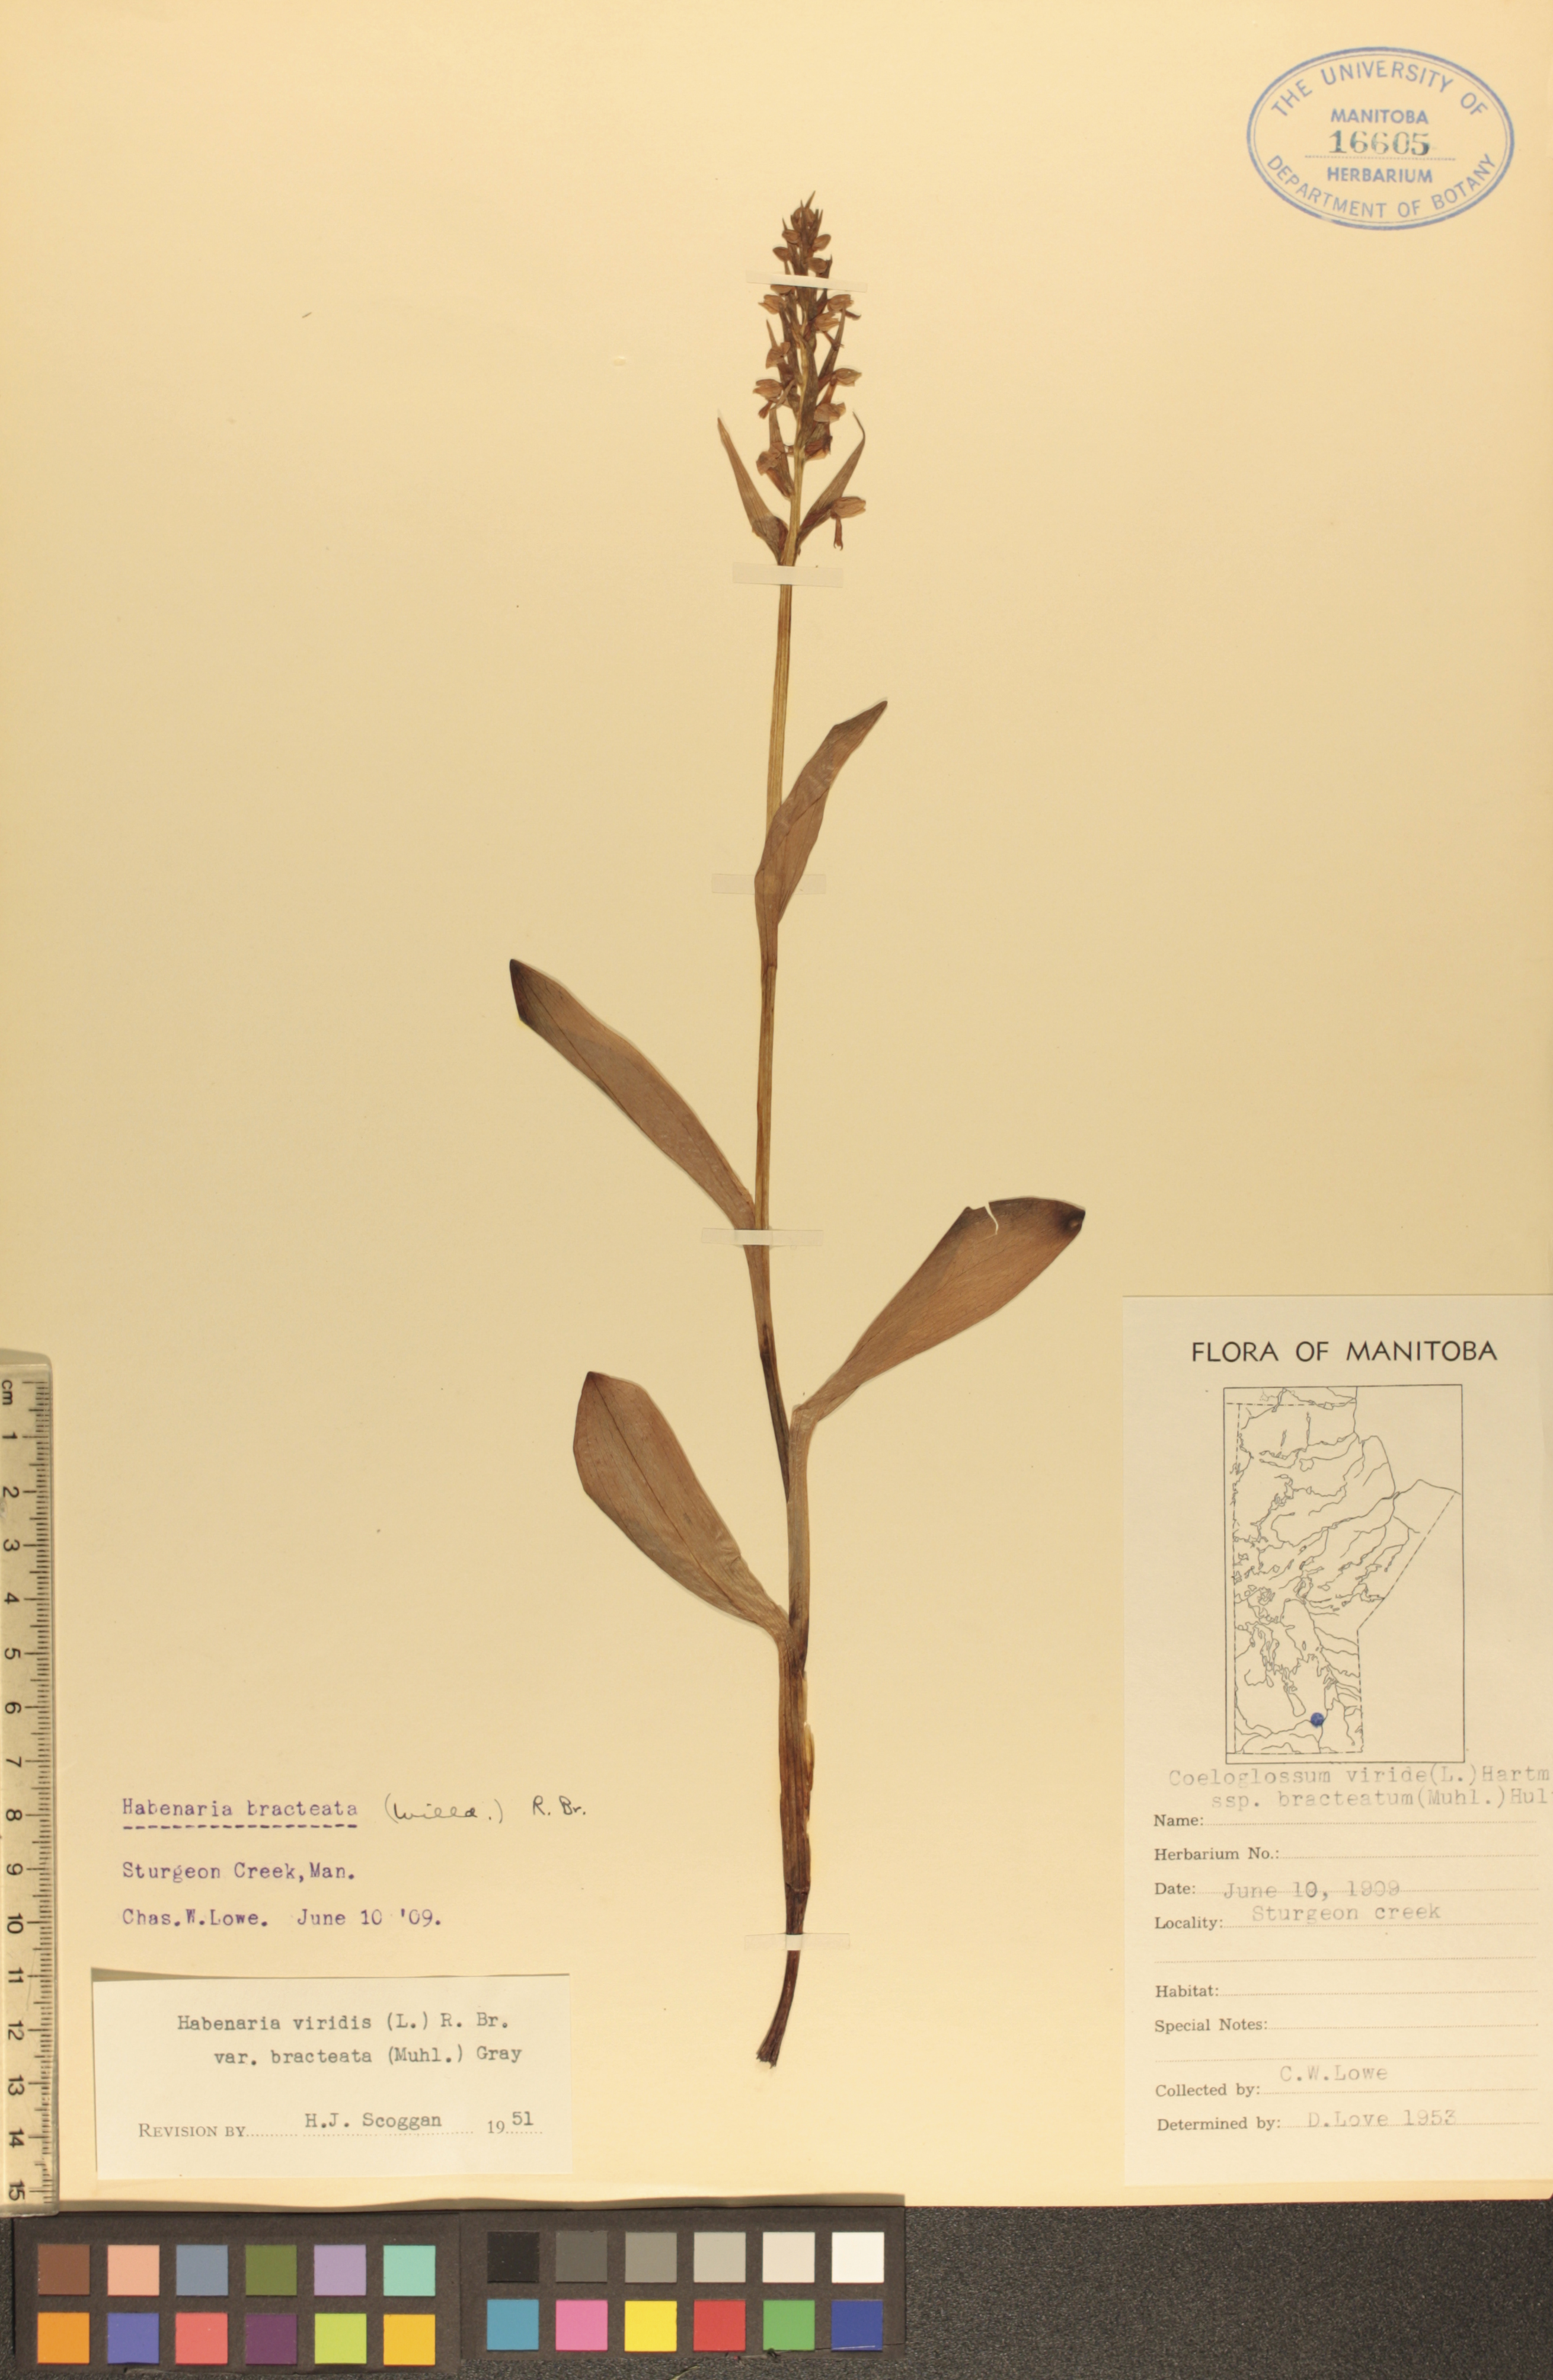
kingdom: Plantae
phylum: Tracheophyta
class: Liliopsida
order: Asparagales
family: Orchidaceae
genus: Dactylorhiza
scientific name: Dactylorhiza viridis
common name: Longbract frog orchid
